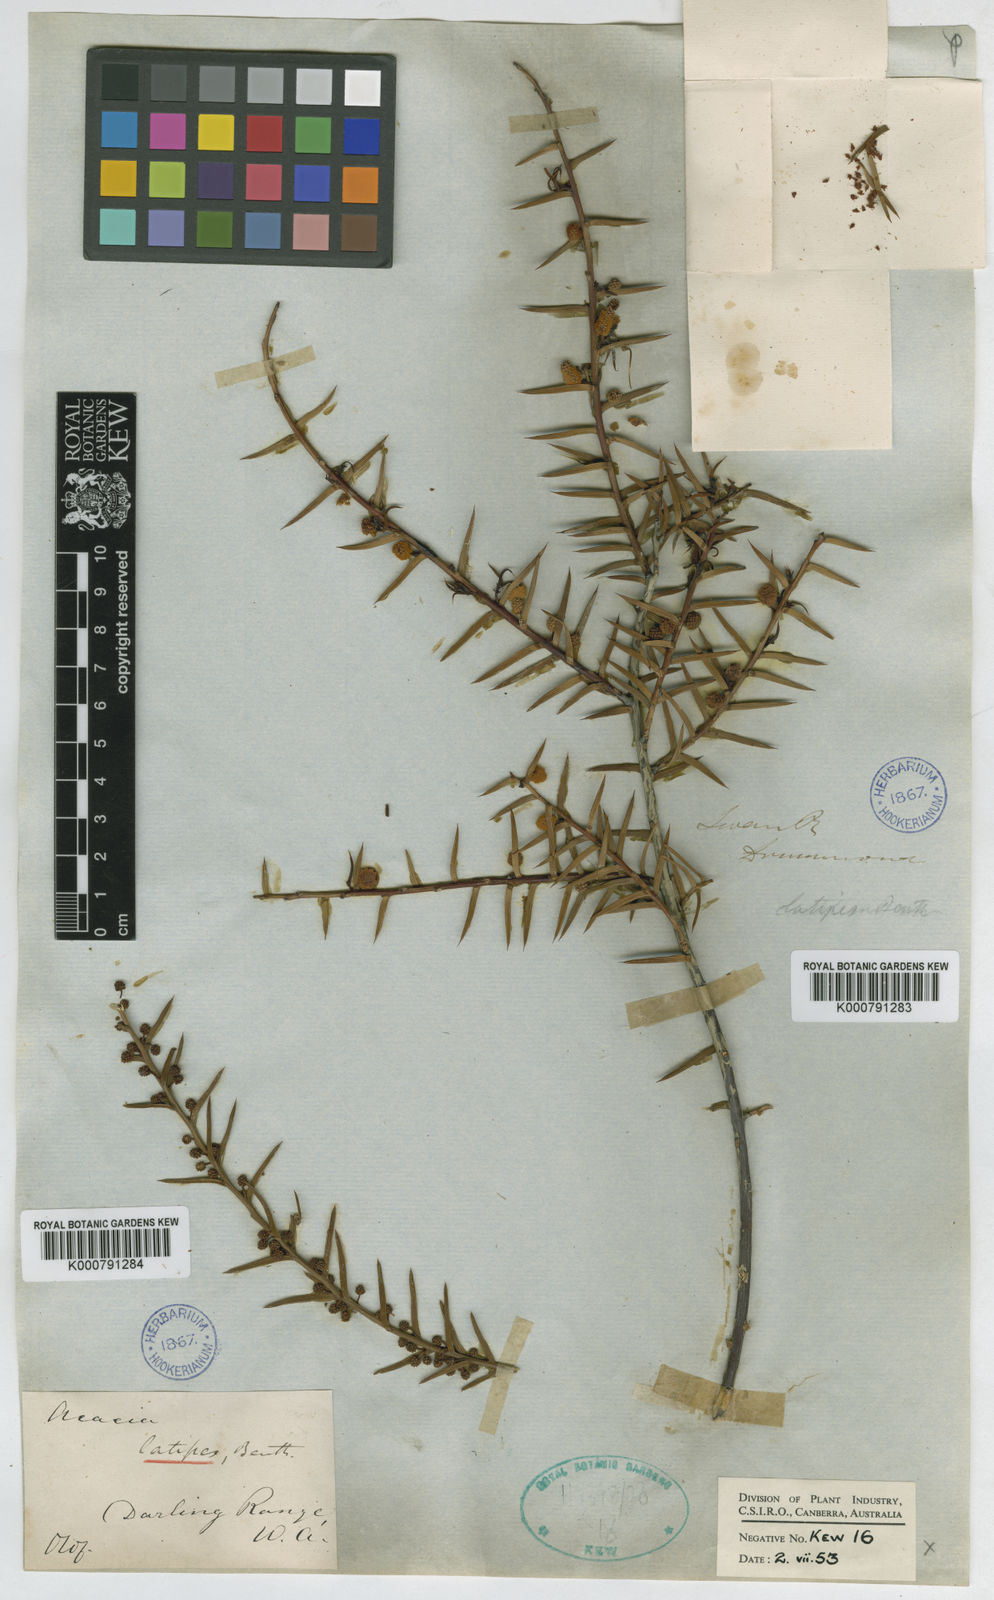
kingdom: Plantae
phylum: Tracheophyta
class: Magnoliopsida
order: Fabales
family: Fabaceae
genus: Acacia
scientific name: Acacia latipes
